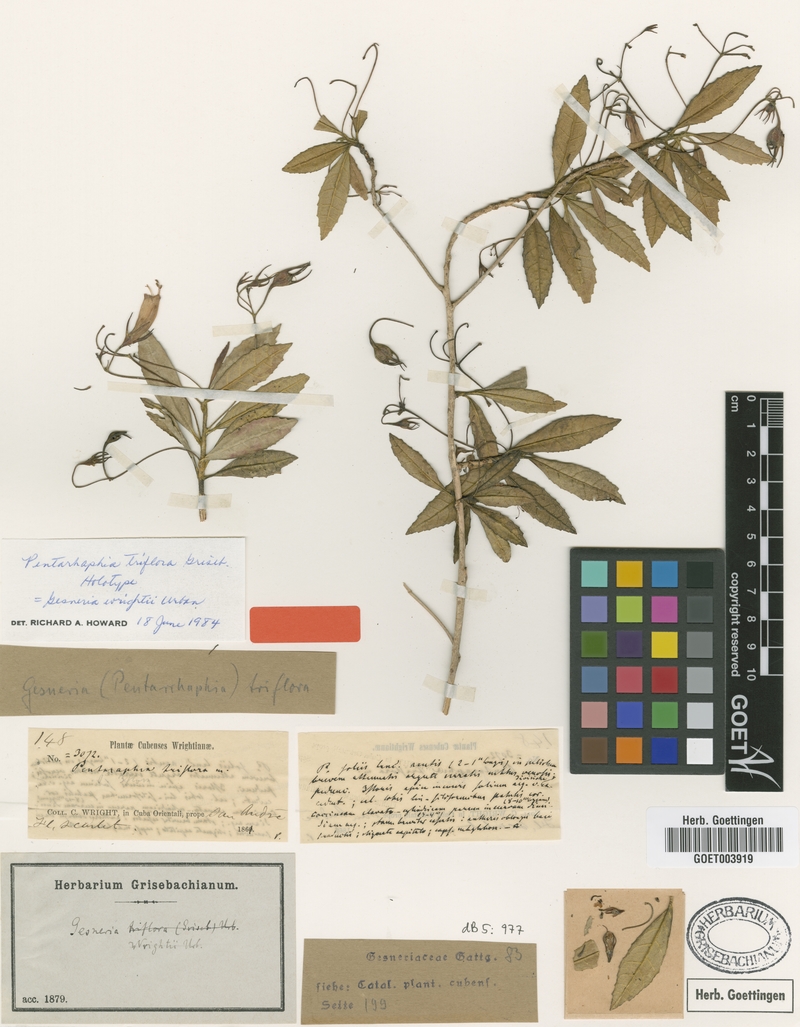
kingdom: Plantae
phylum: Tracheophyta
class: Magnoliopsida
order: Lamiales
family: Gesneriaceae
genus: Gesneria
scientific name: Gesneria wrightii
